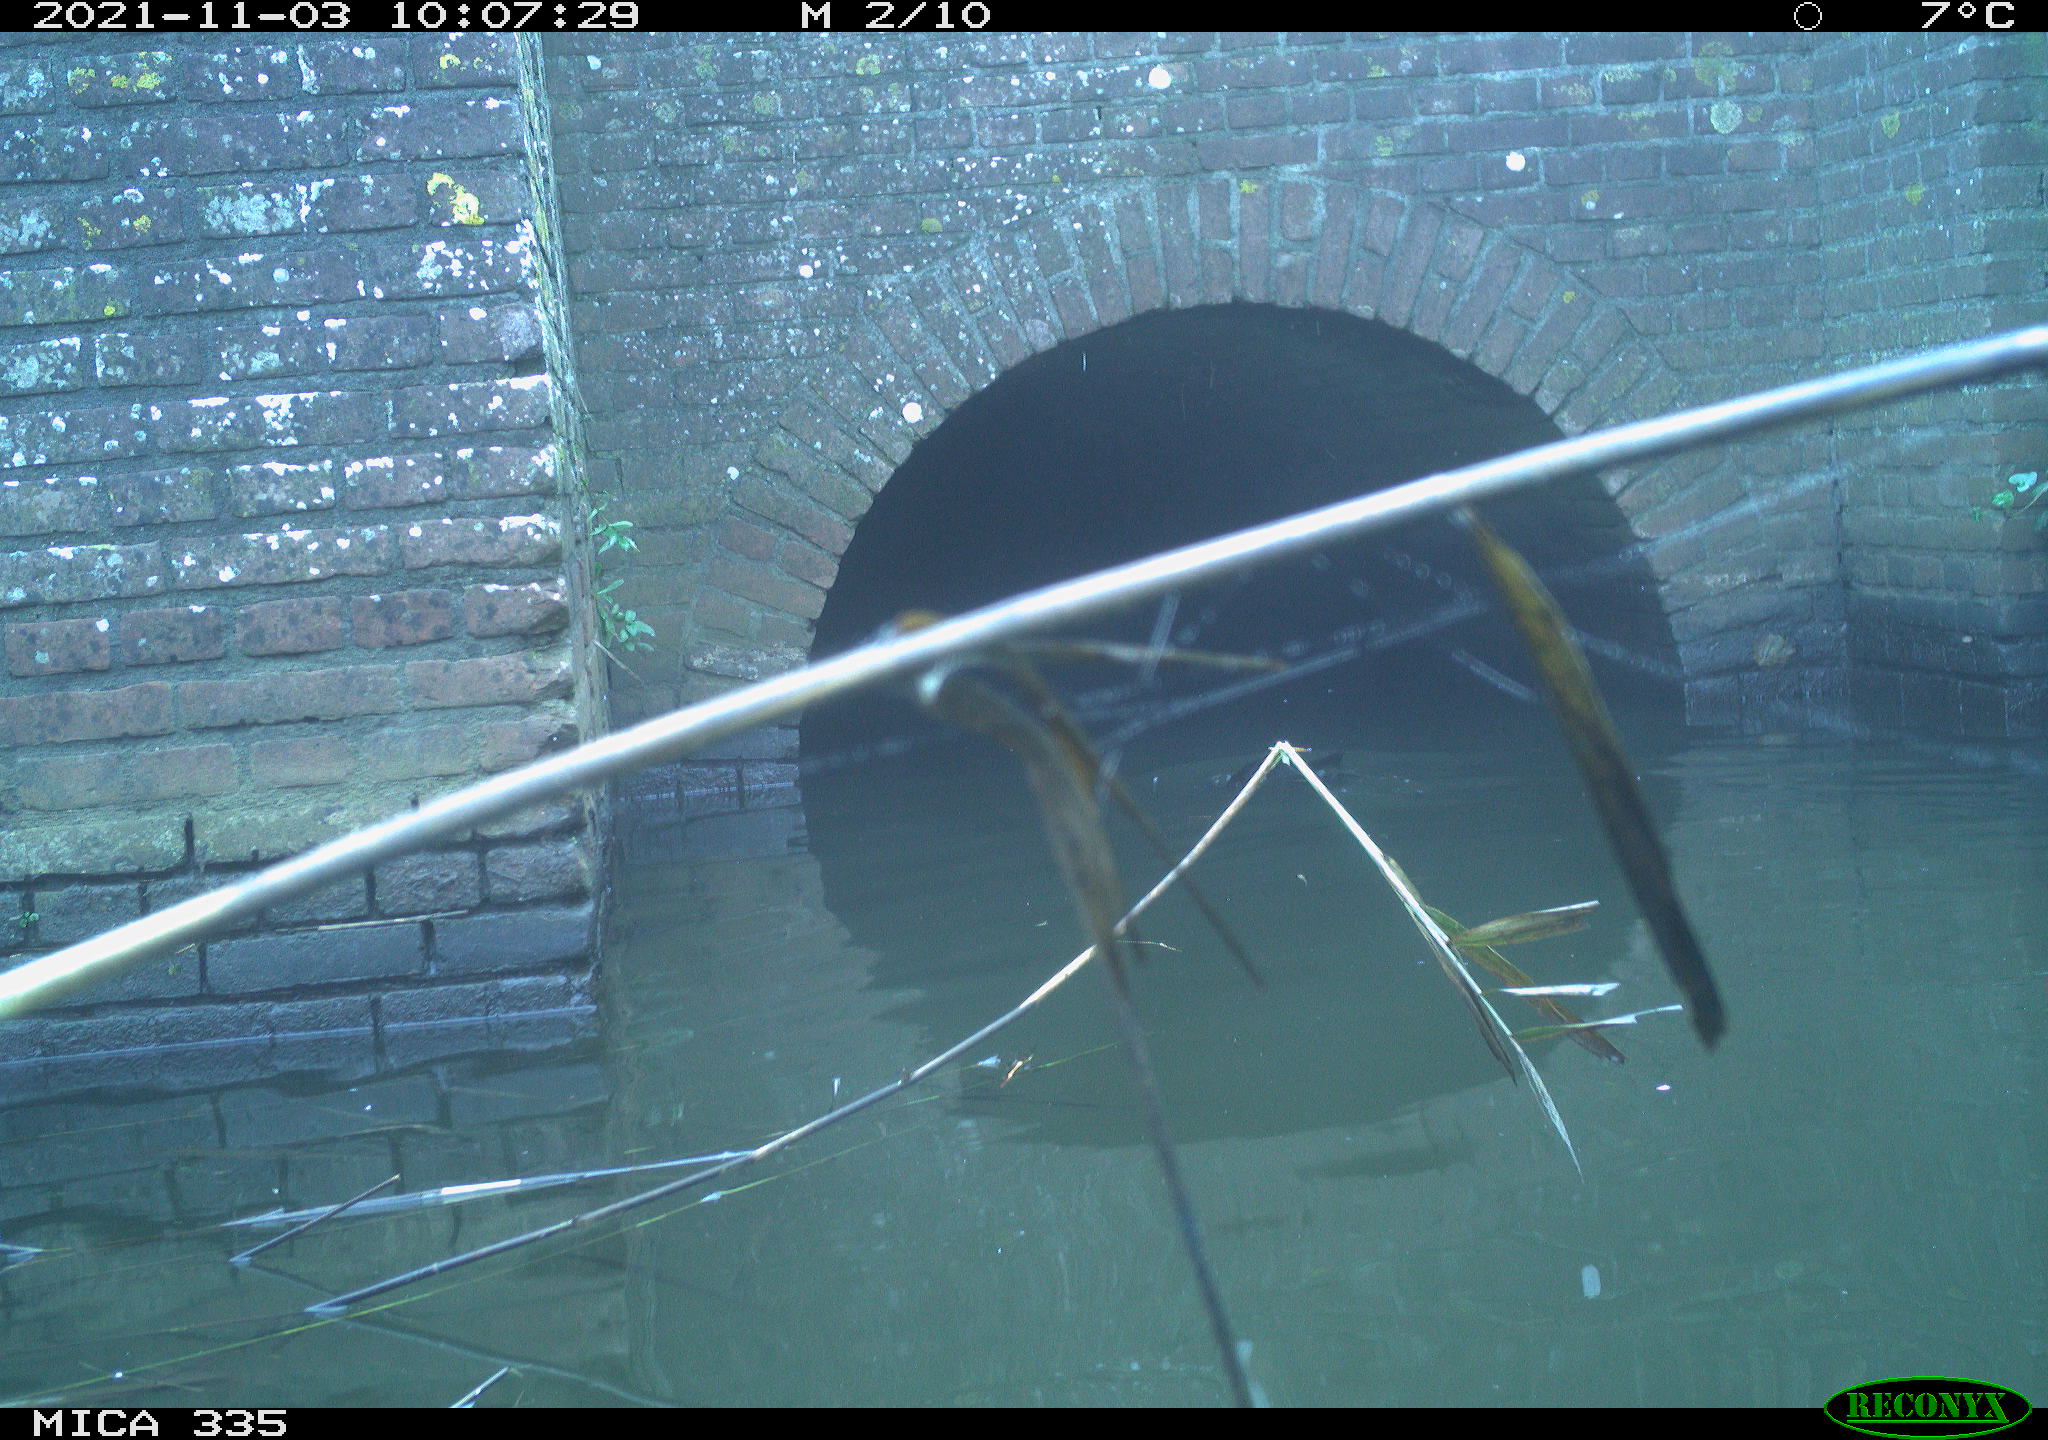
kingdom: Animalia
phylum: Chordata
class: Aves
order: Suliformes
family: Phalacrocoracidae
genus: Phalacrocorax
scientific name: Phalacrocorax carbo
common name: Great cormorant
